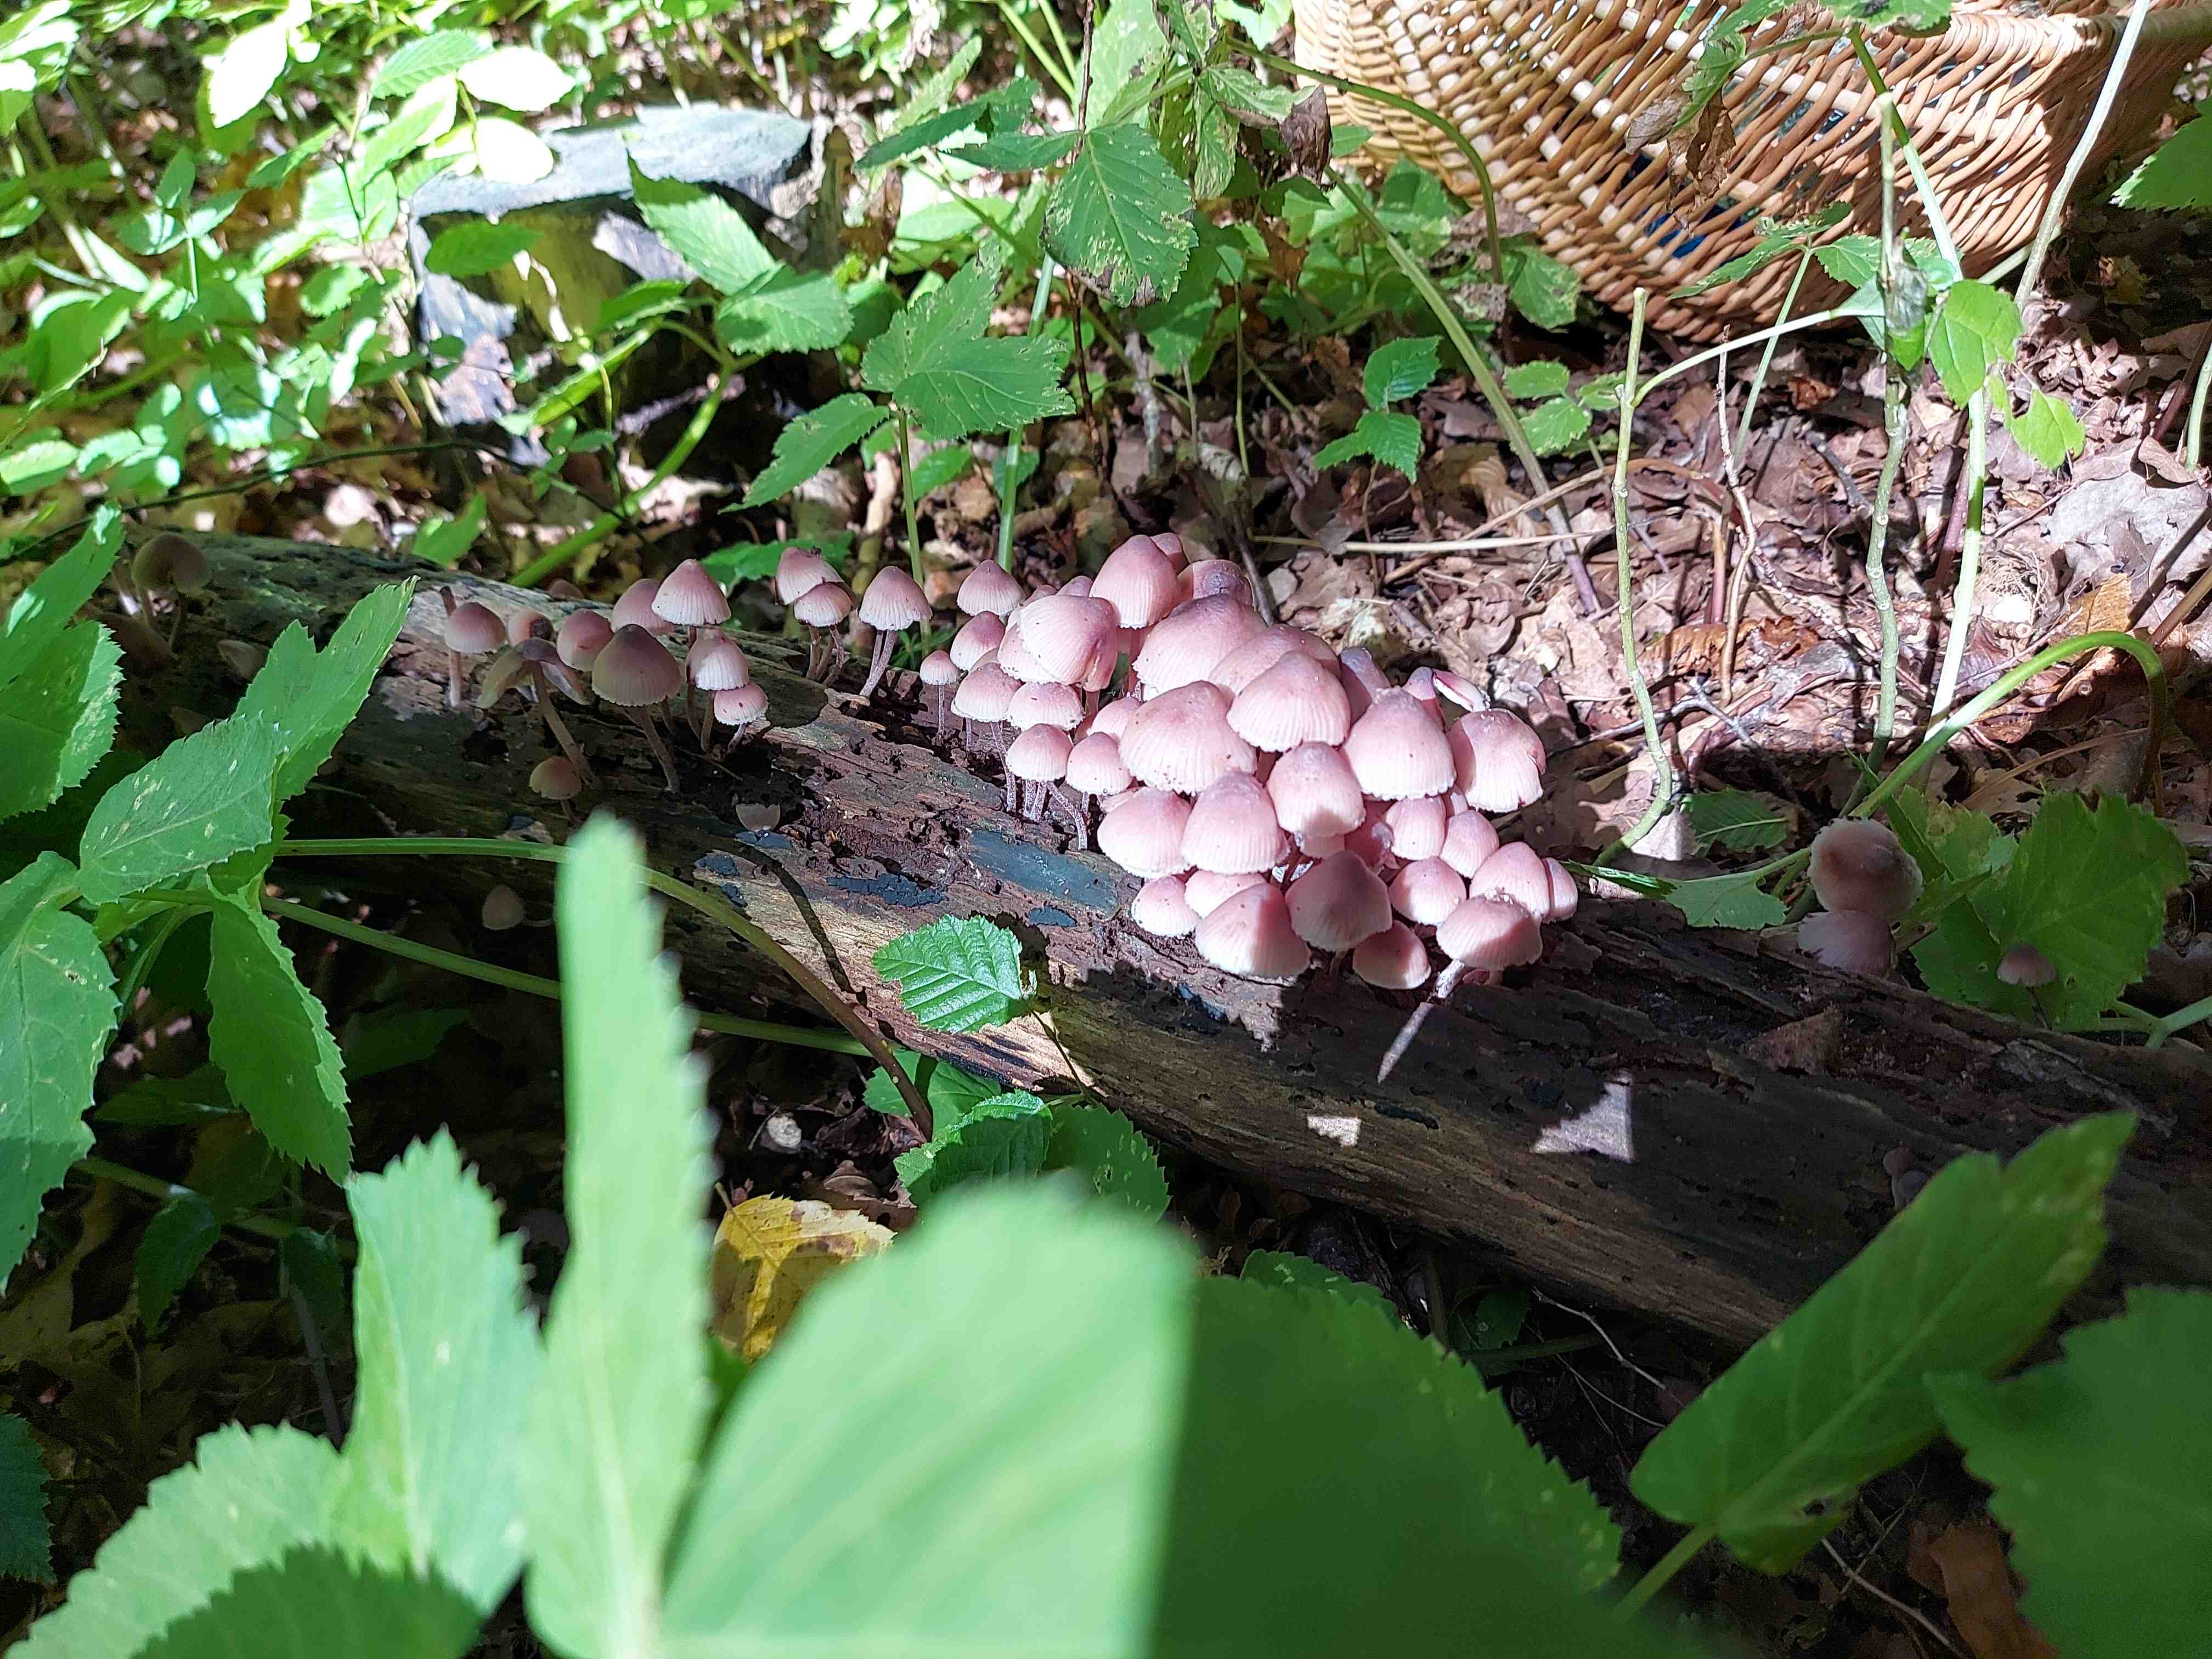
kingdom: Fungi
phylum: Basidiomycota
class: Agaricomycetes
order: Agaricales
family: Mycenaceae
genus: Mycena
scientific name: Mycena
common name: huesvamp
